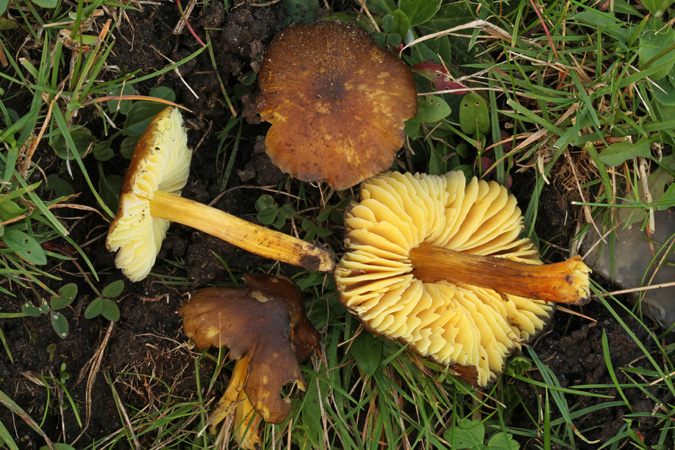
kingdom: Fungi
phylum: Basidiomycota
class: Agaricomycetes
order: Agaricales
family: Hygrophoraceae
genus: Hygrocybe
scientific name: Hygrocybe spadicea
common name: daddelbrun vokshat
